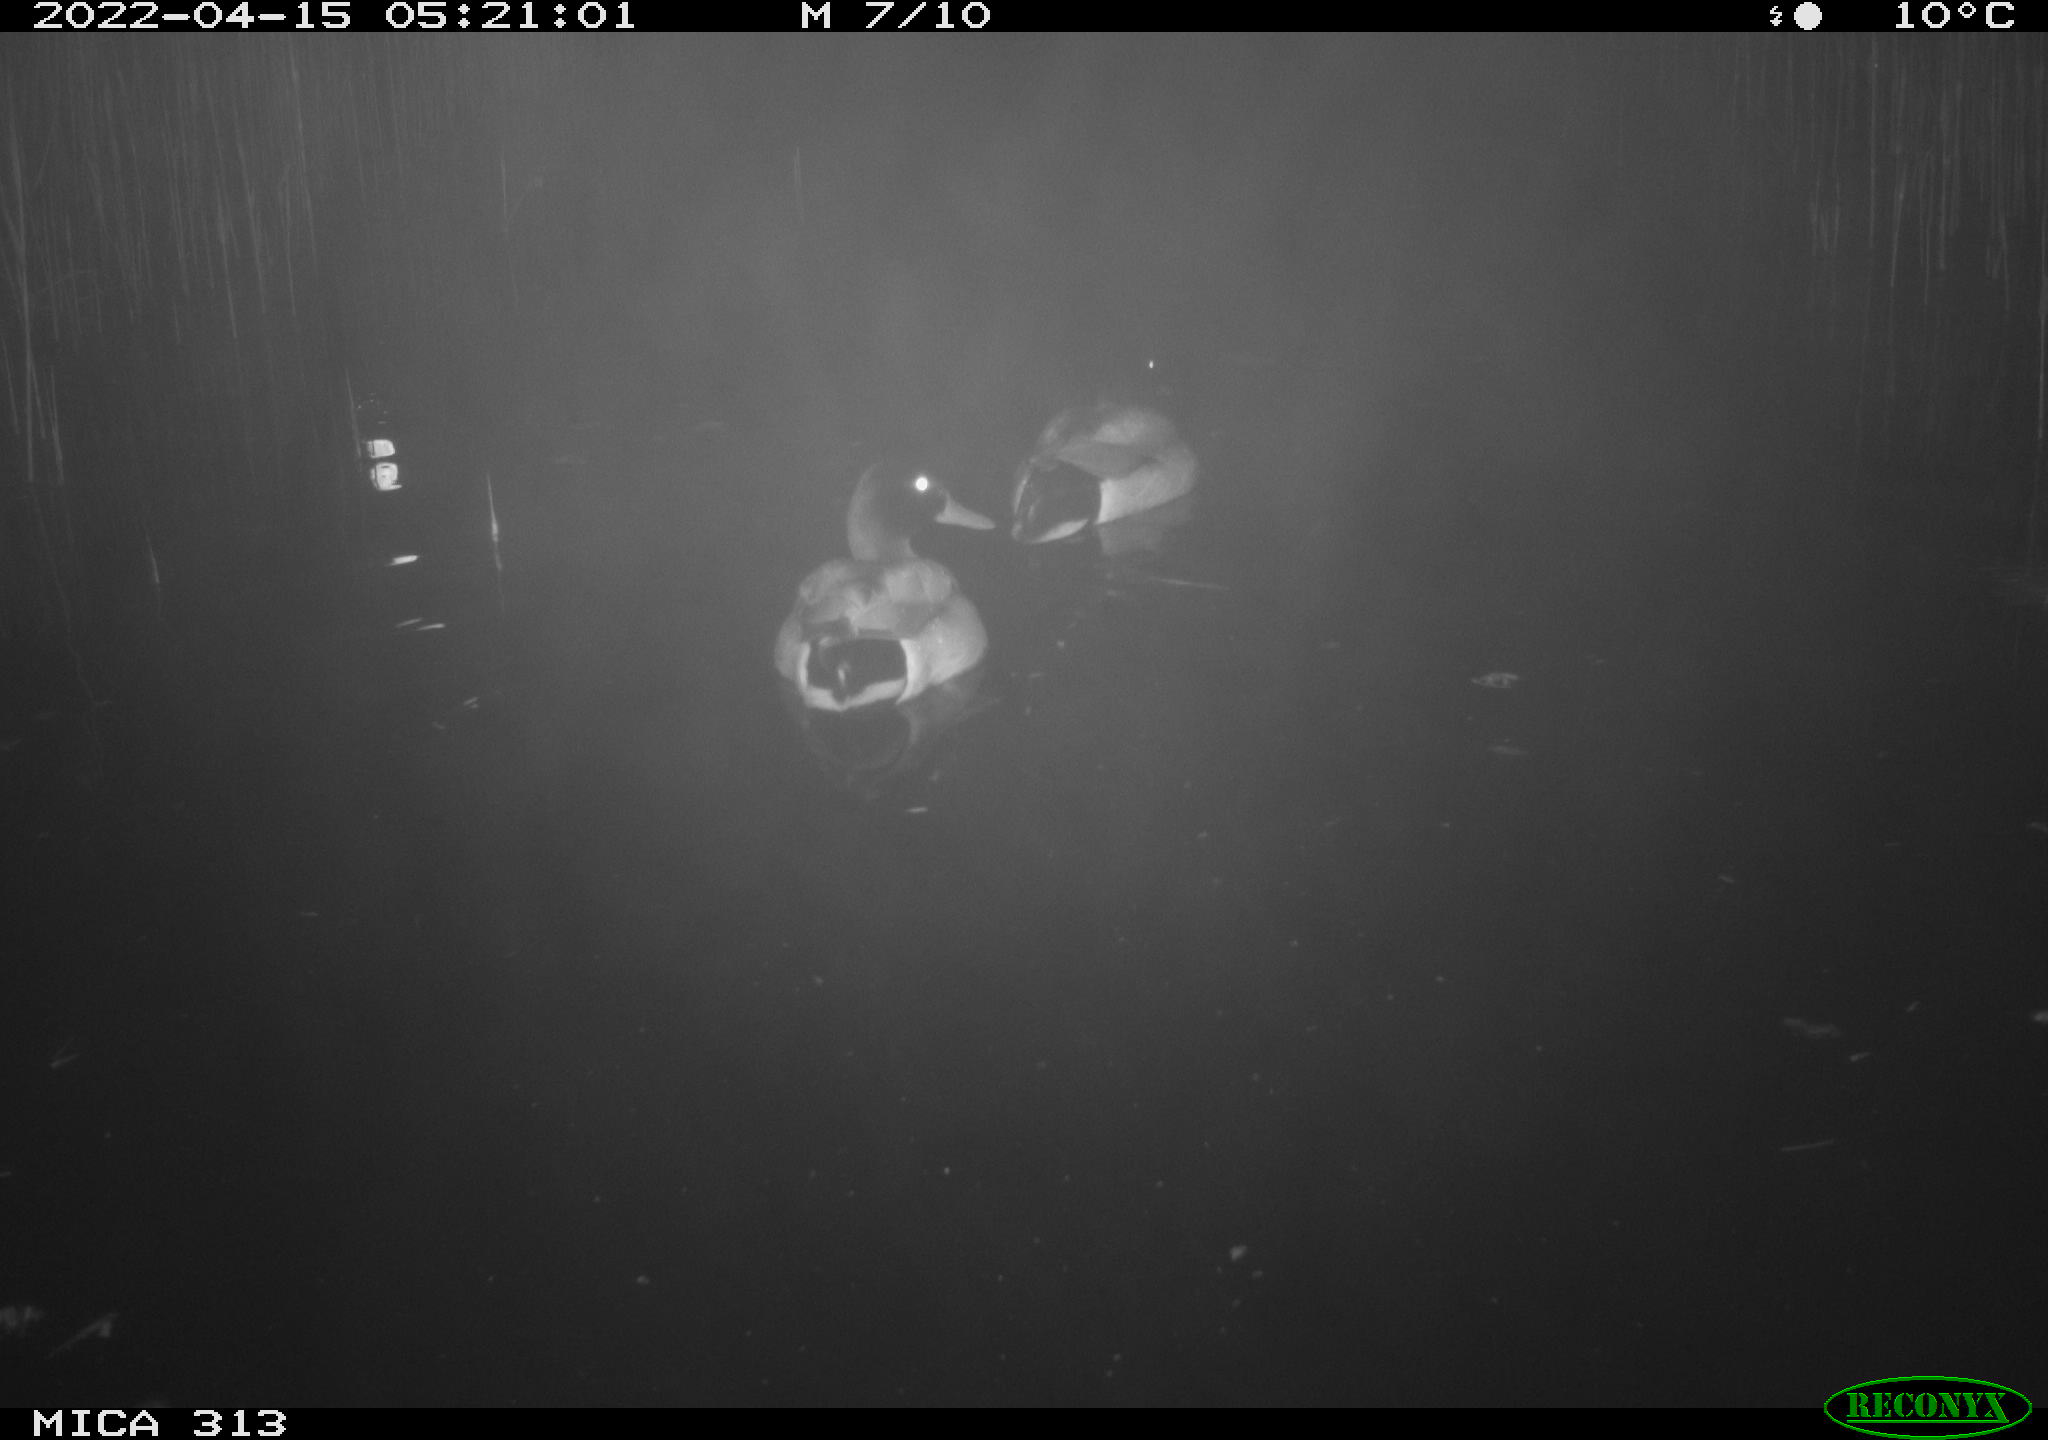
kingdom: Animalia
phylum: Chordata
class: Aves
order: Anseriformes
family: Anatidae
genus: Anas
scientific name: Anas platyrhynchos
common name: Mallard
